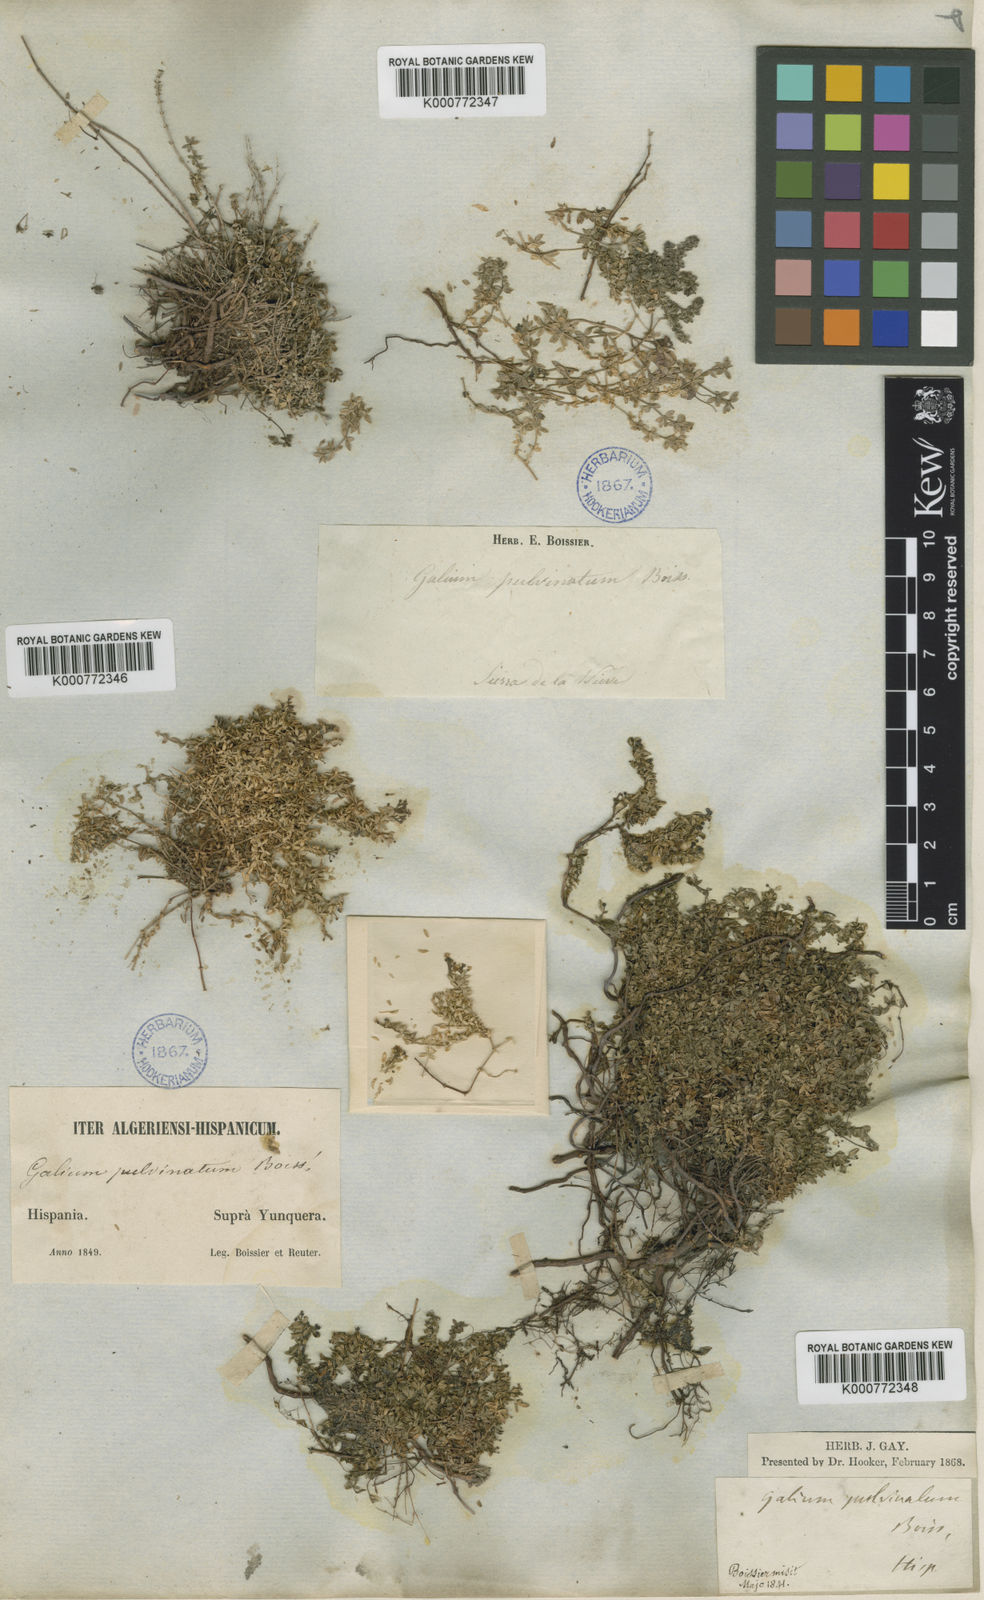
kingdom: Plantae
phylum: Tracheophyta
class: Magnoliopsida
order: Gentianales
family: Rubiaceae
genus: Galium
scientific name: Galium pulvinatum
